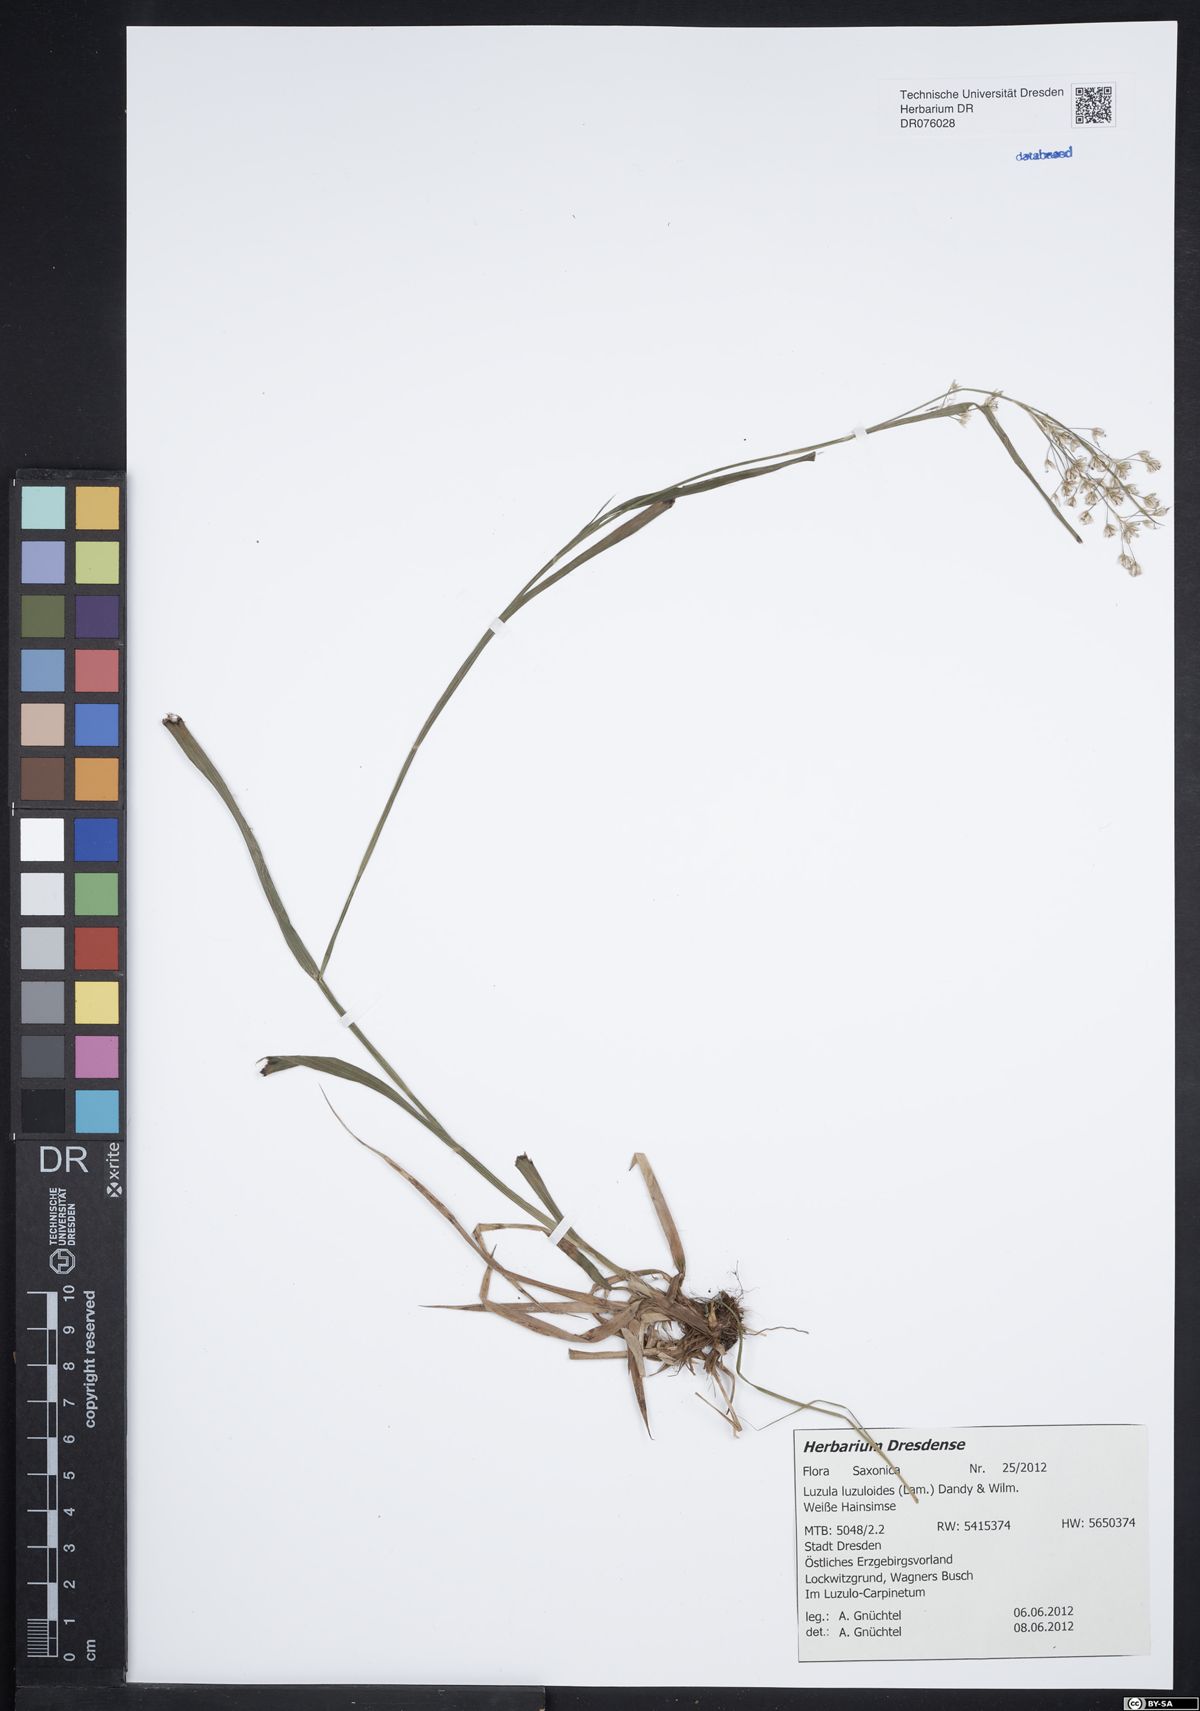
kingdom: Plantae
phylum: Tracheophyta
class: Liliopsida
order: Poales
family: Juncaceae
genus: Luzula
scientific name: Luzula luzuloides
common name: White wood-rush
